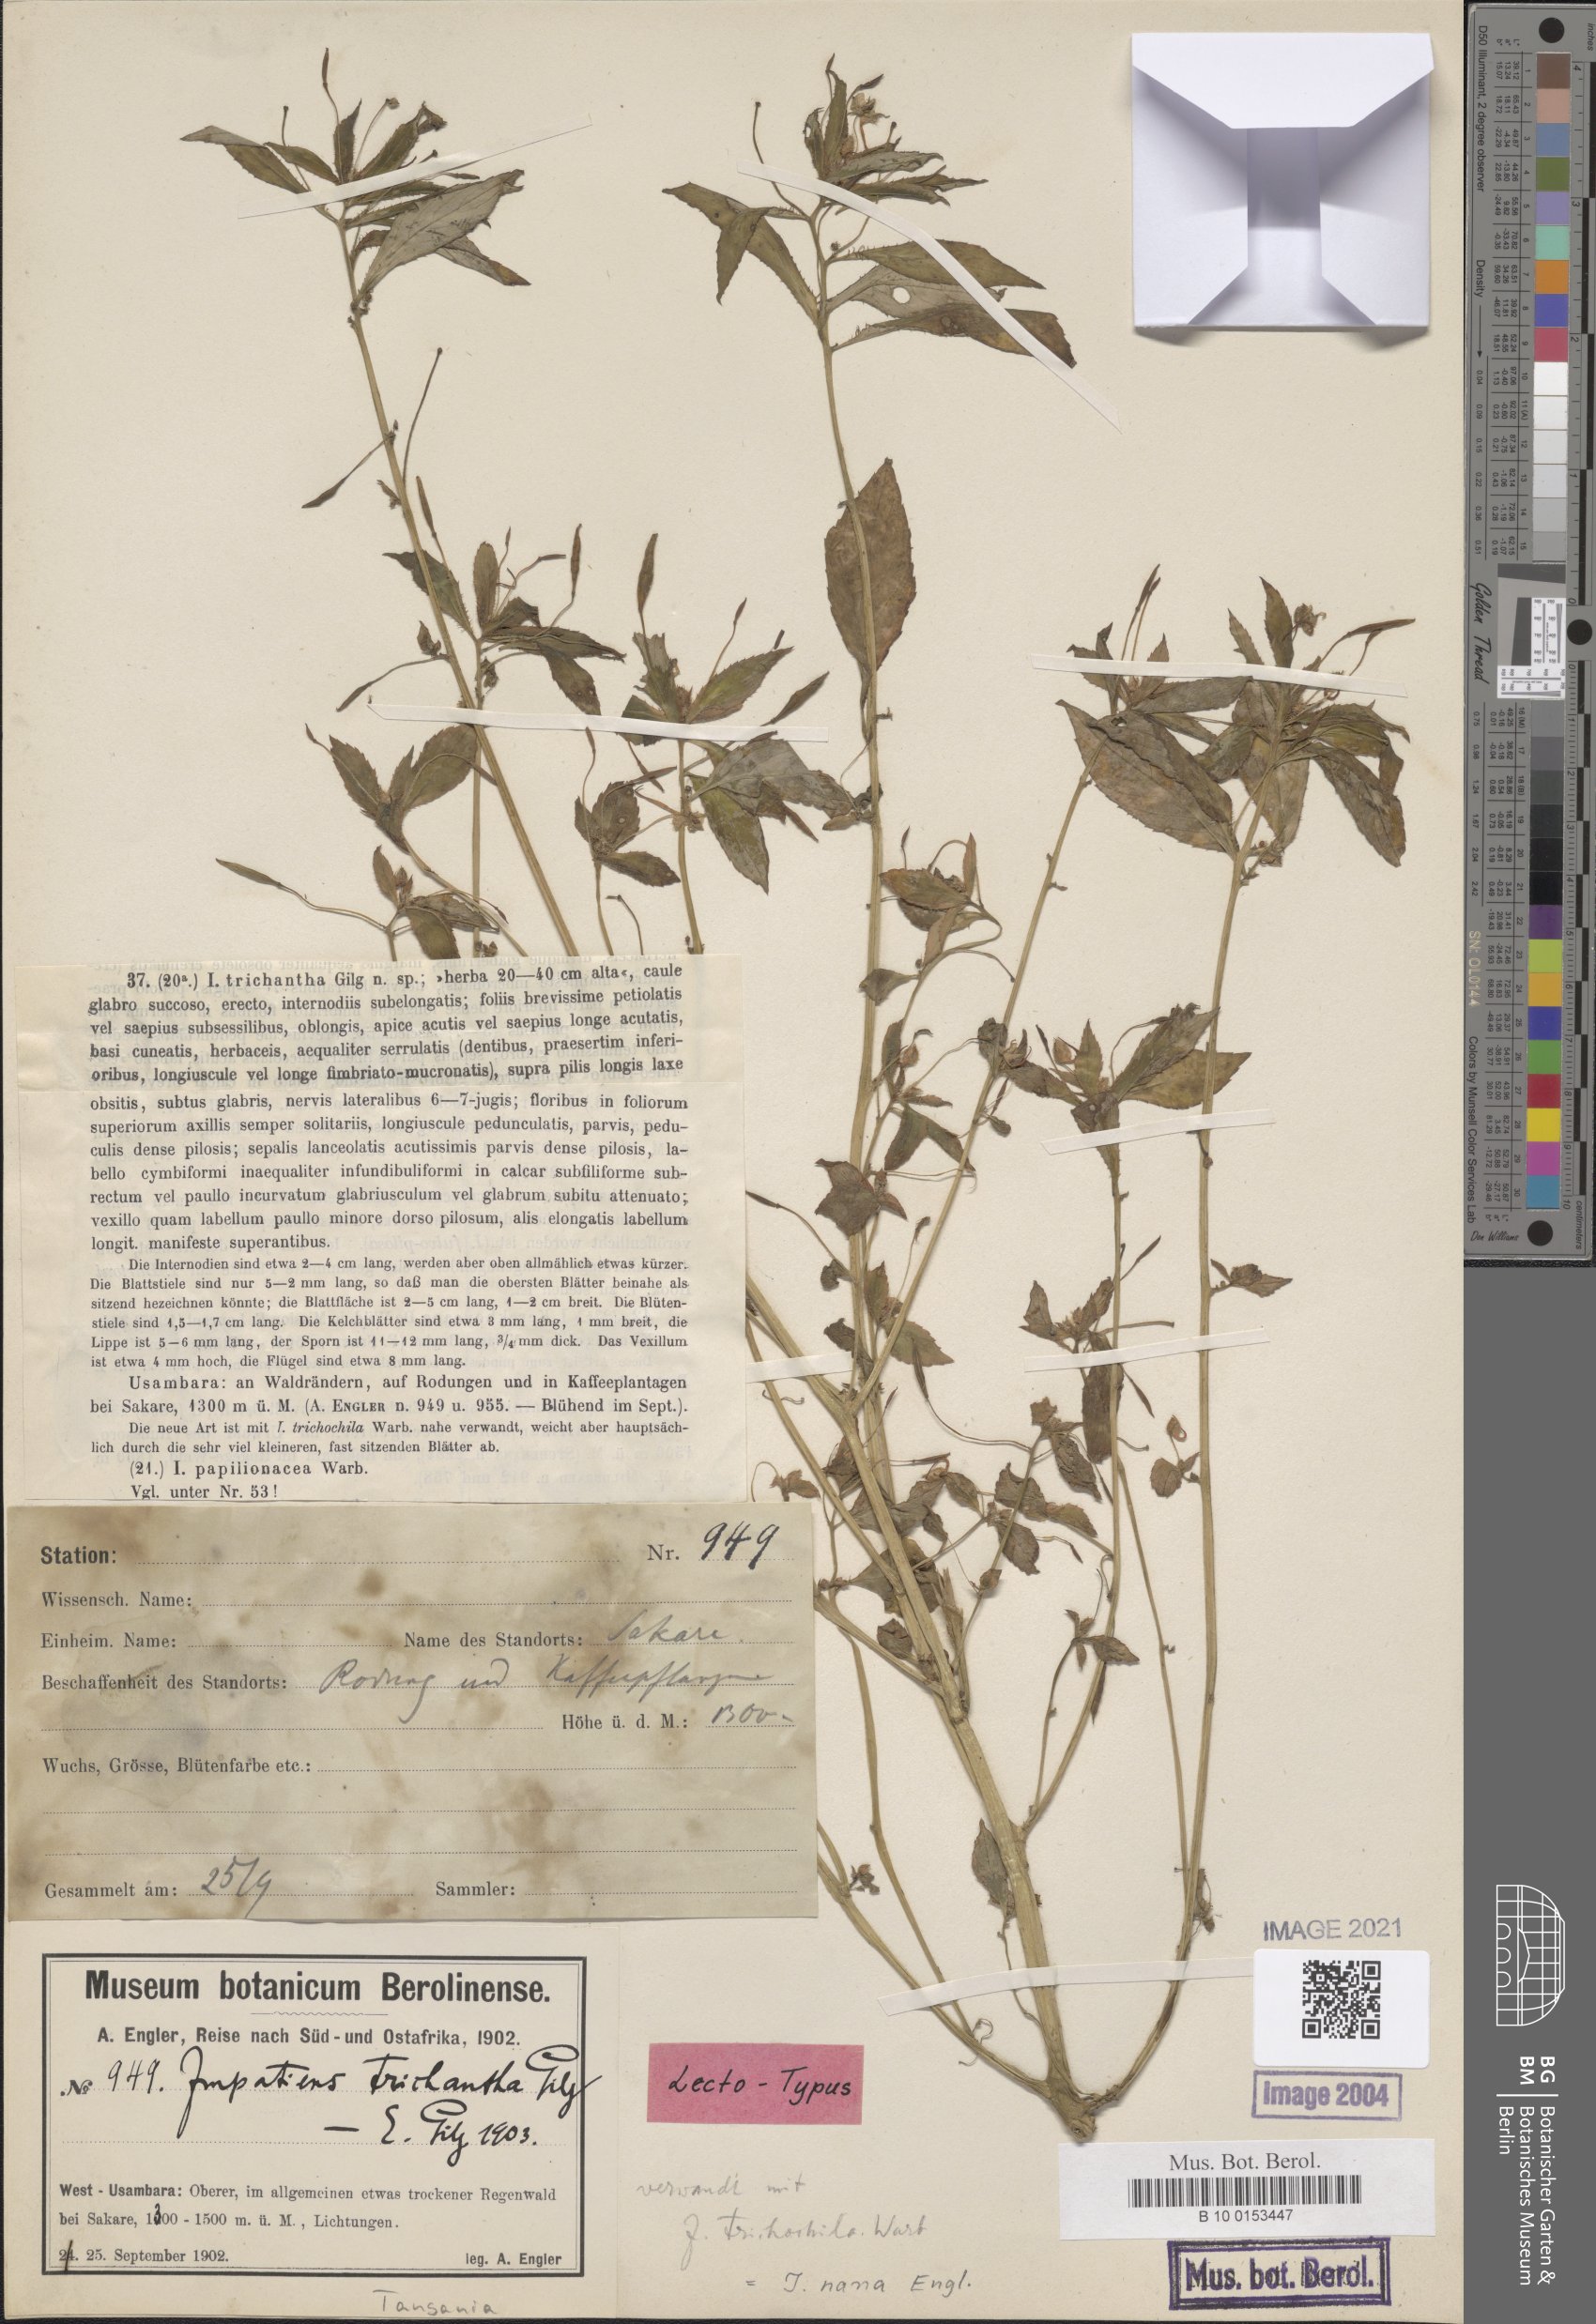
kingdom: Plantae
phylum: Tracheophyta
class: Magnoliopsida
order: Ericales
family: Balsaminaceae
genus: Impatiens
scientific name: Impatiens nana
